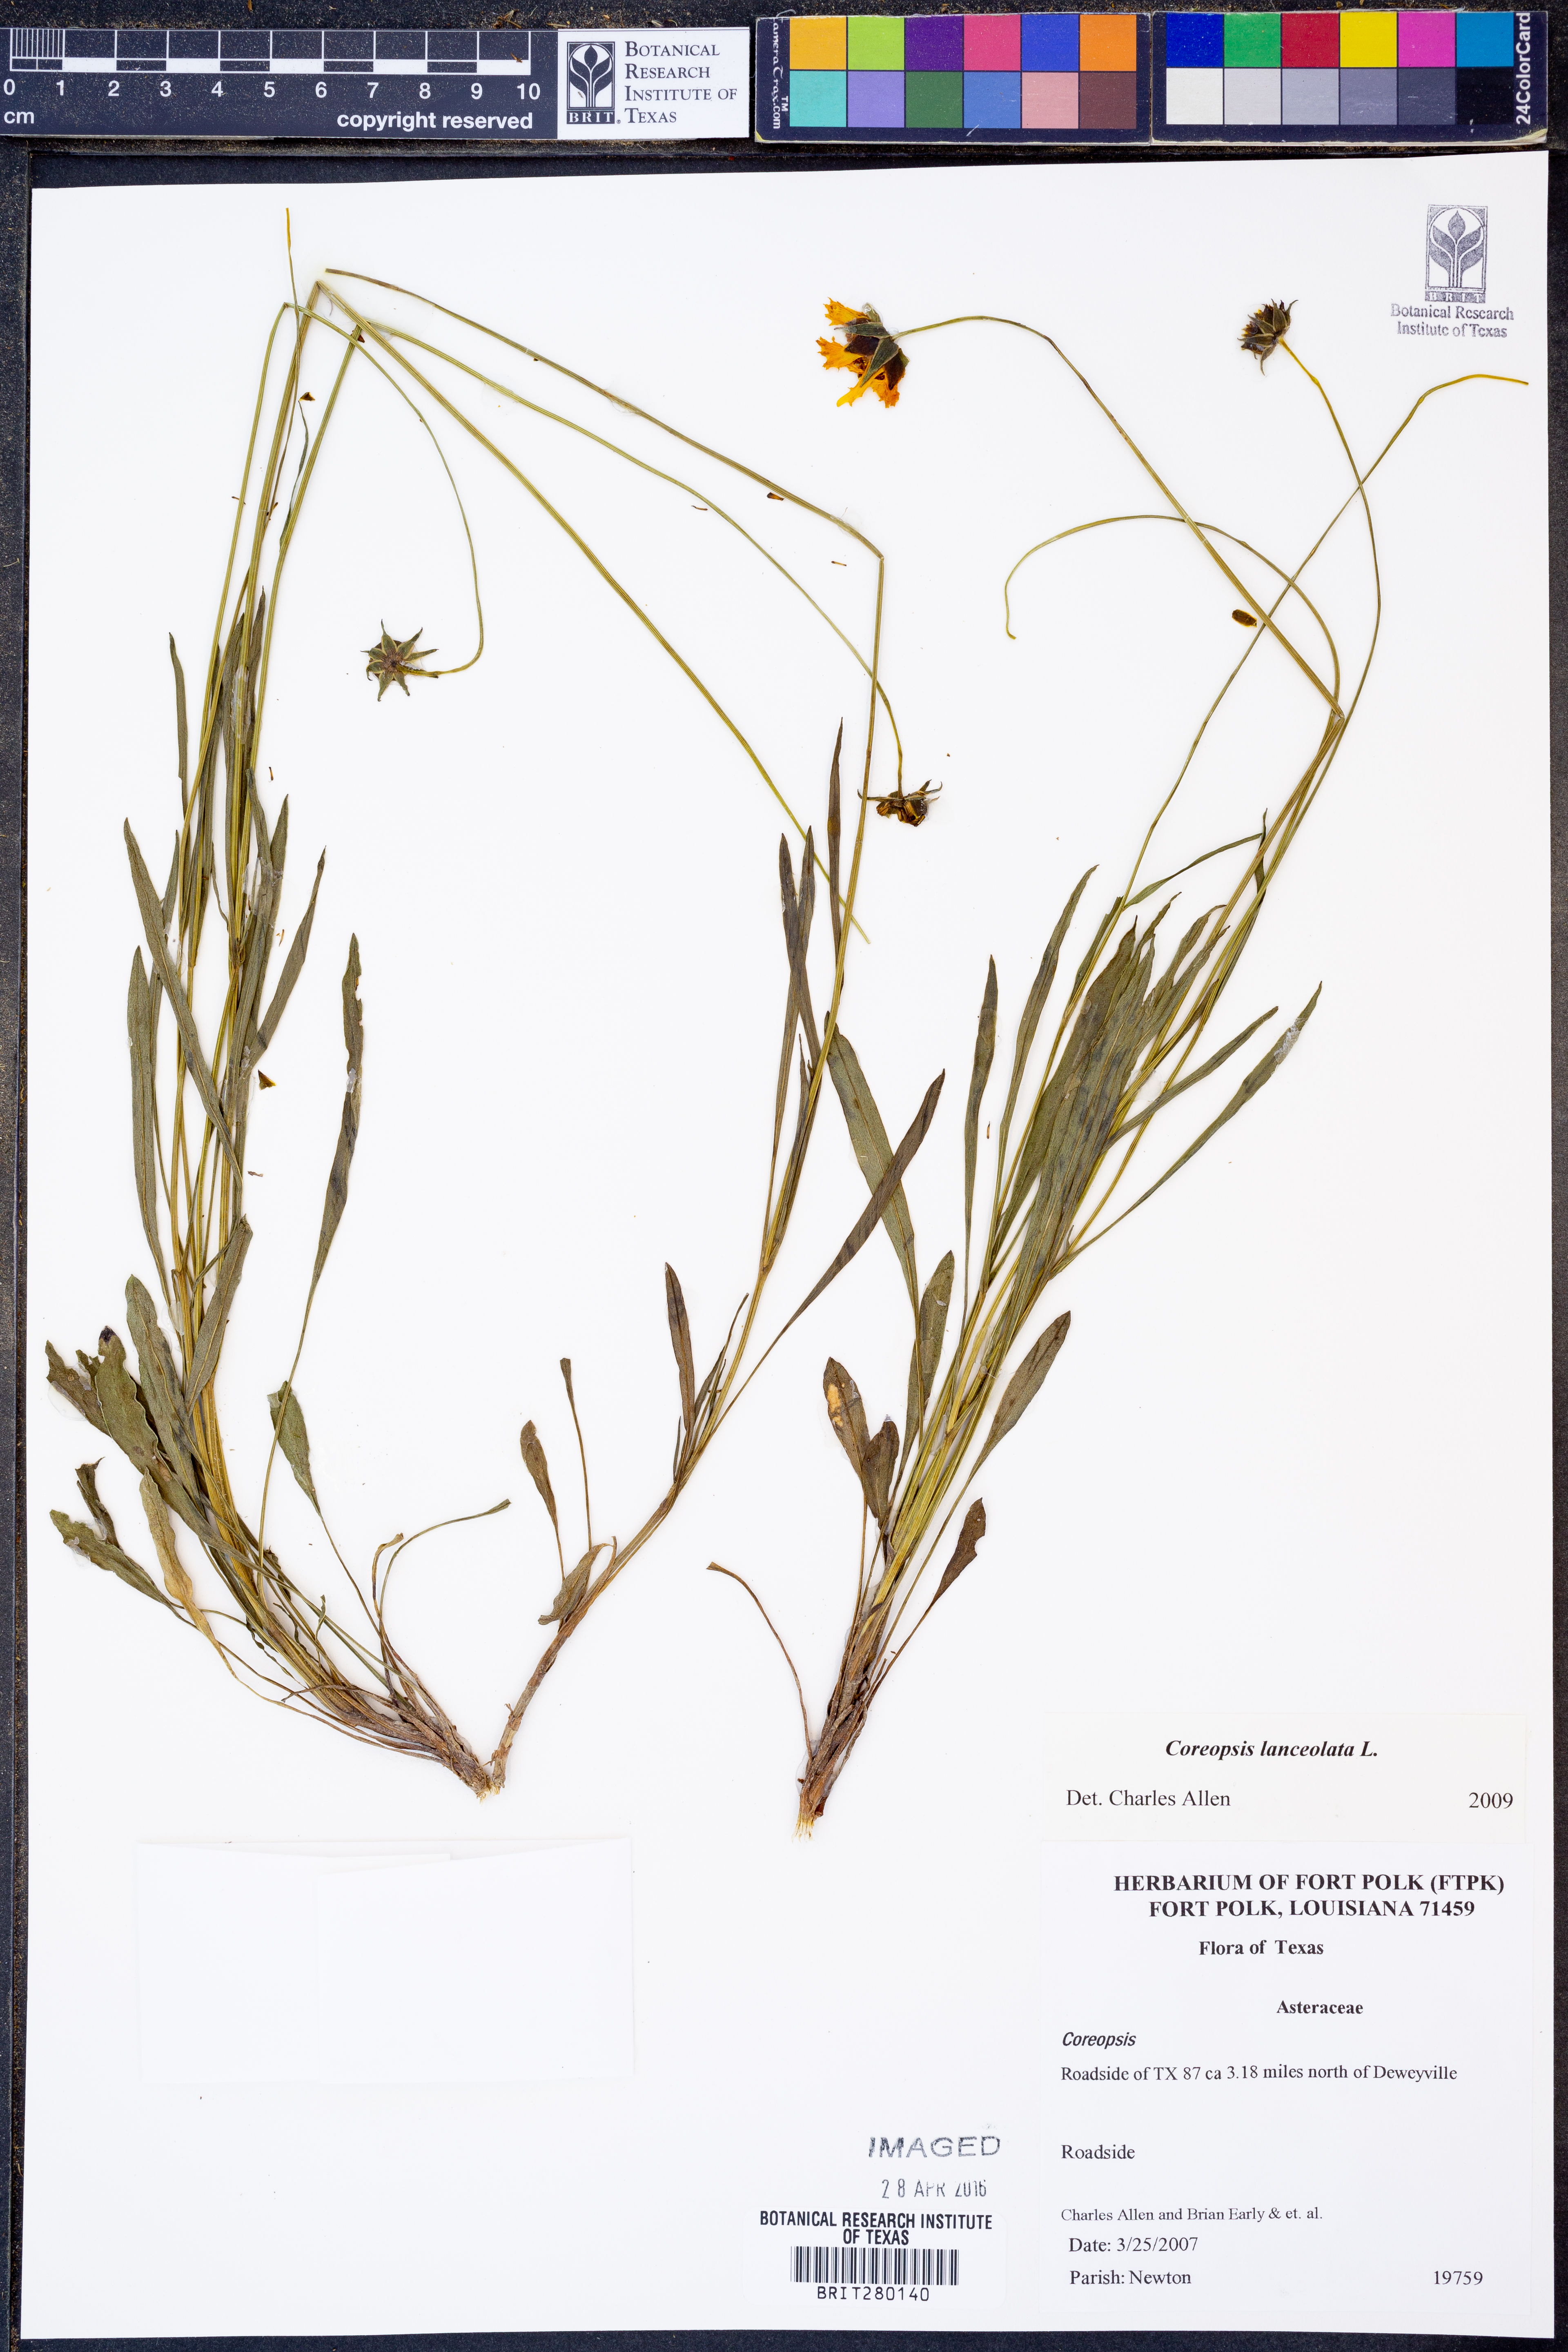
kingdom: Plantae
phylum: Tracheophyta
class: Magnoliopsida
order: Asterales
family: Asteraceae
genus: Coreopsis
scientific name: Coreopsis lanceolata
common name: Garden coreopsis
